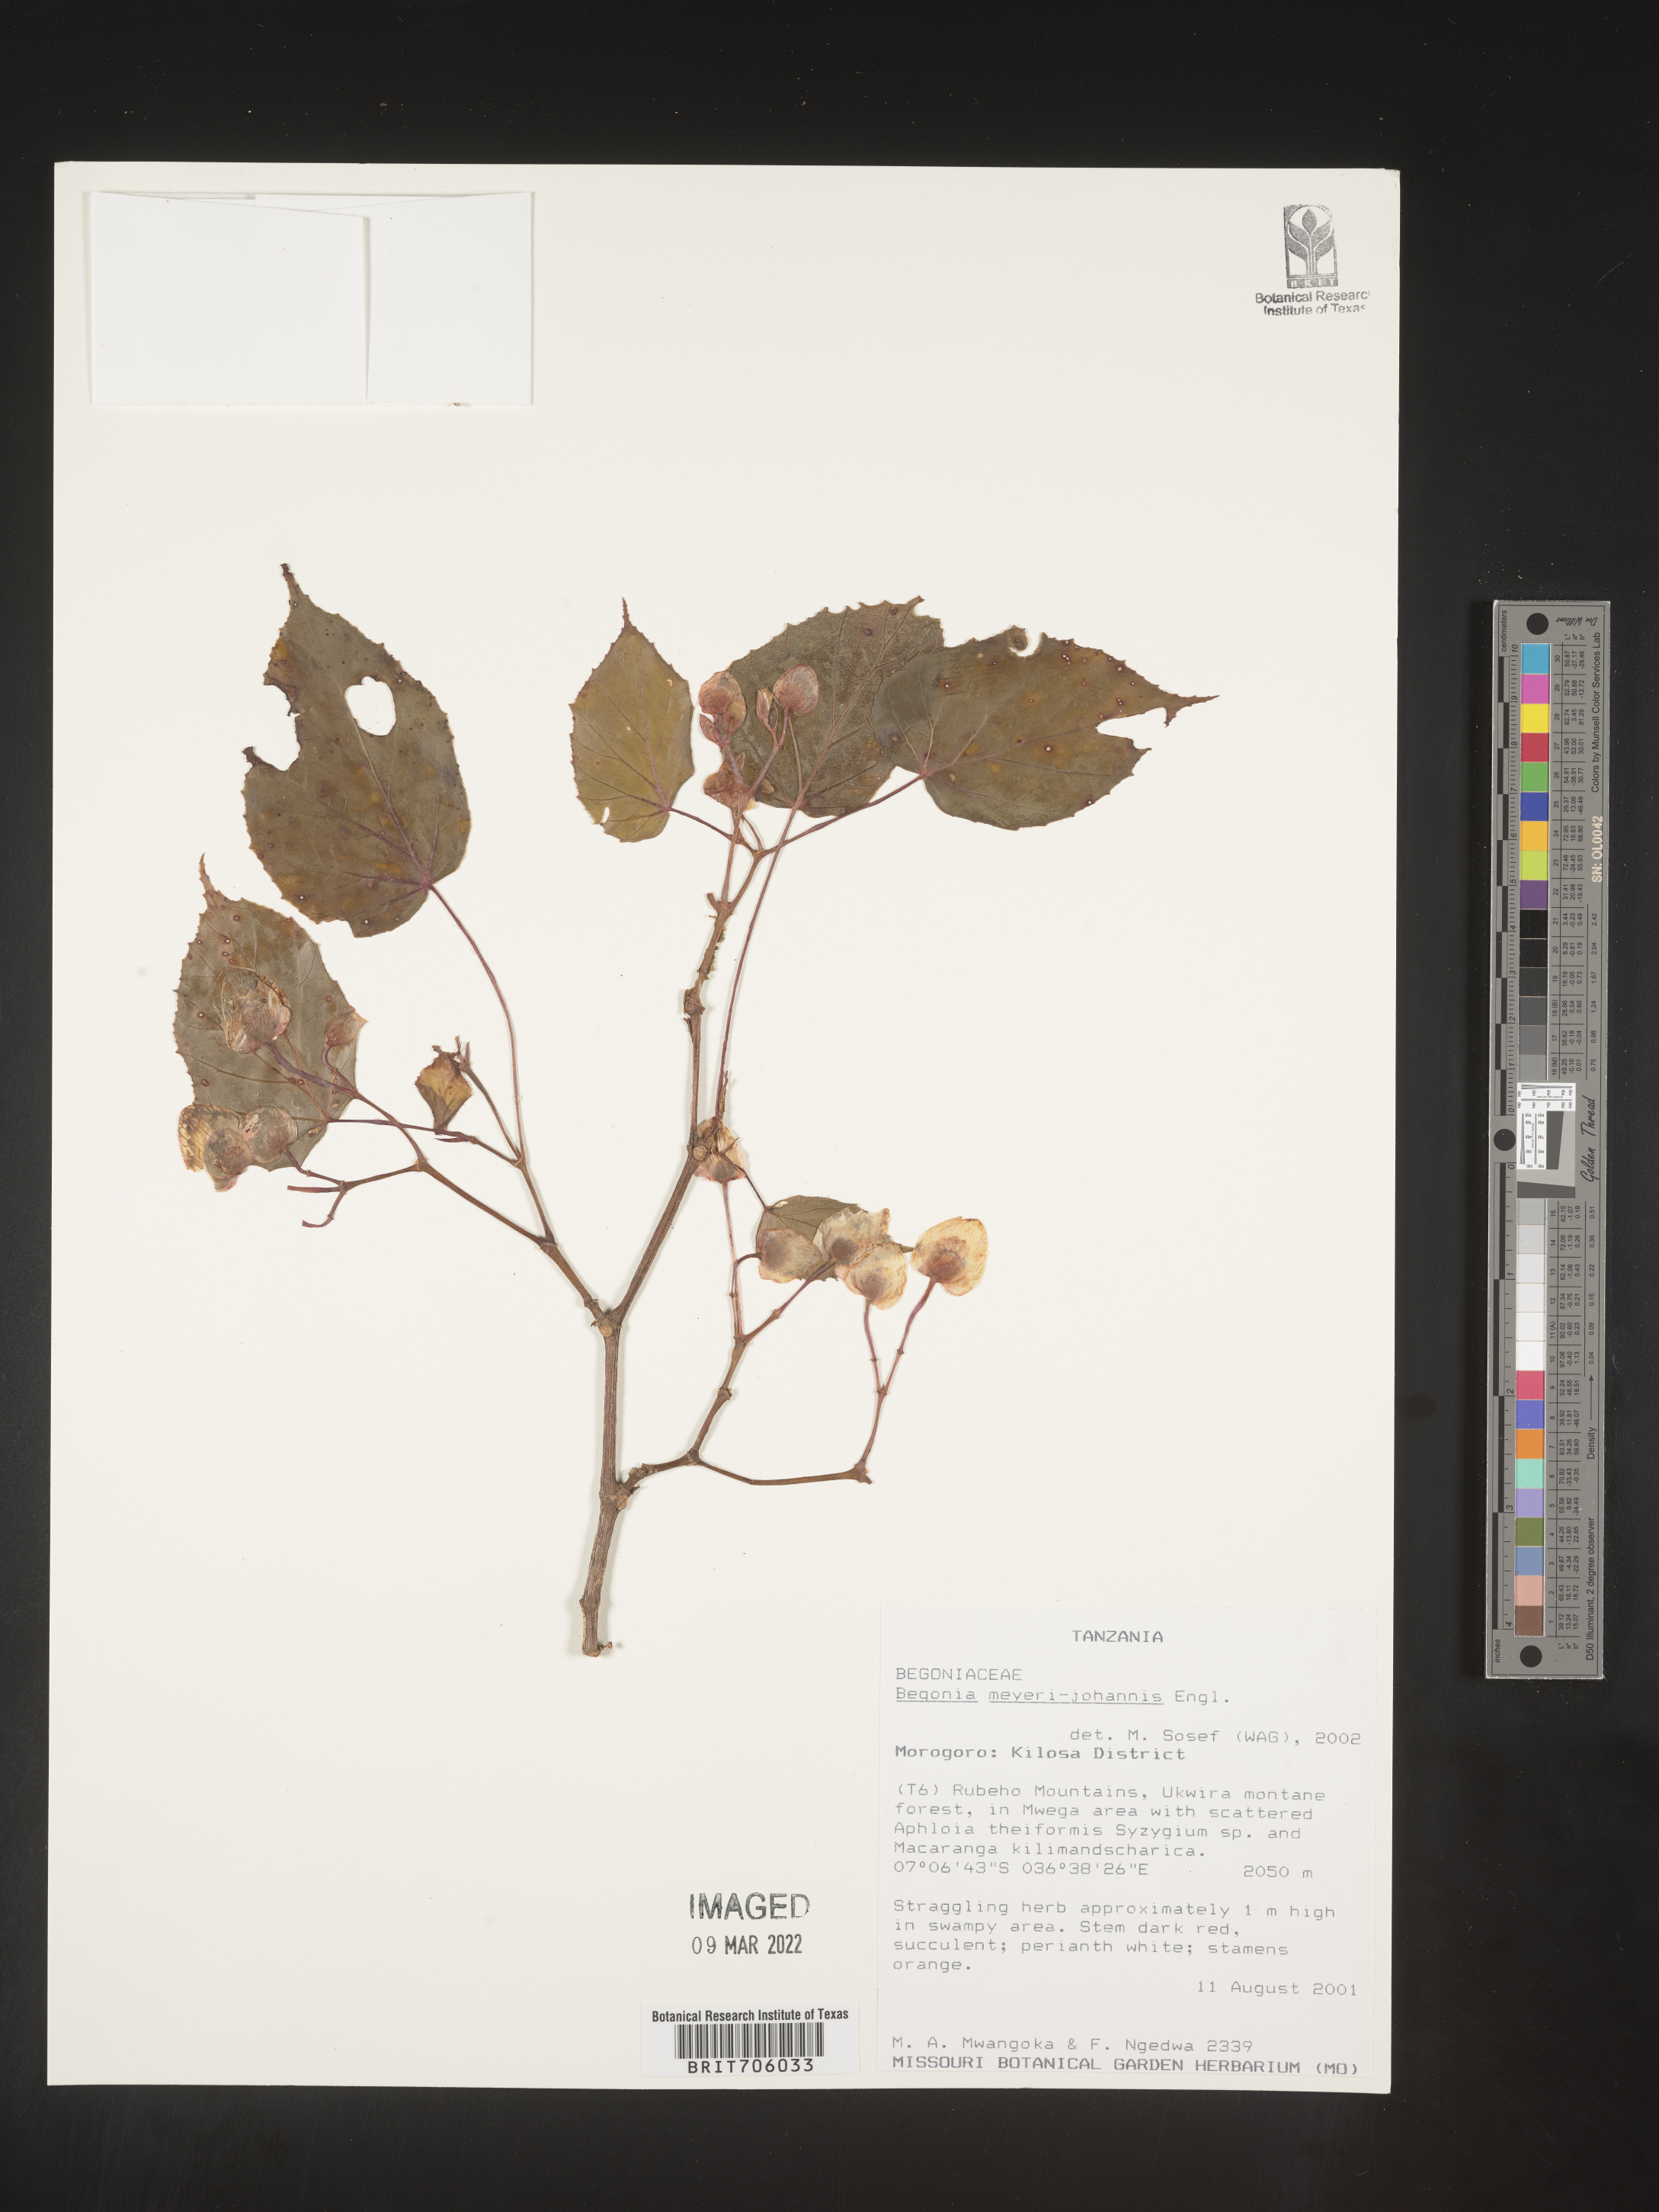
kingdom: Plantae
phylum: Tracheophyta
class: Magnoliopsida
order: Cucurbitales
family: Begoniaceae
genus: Begonia
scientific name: Begonia
